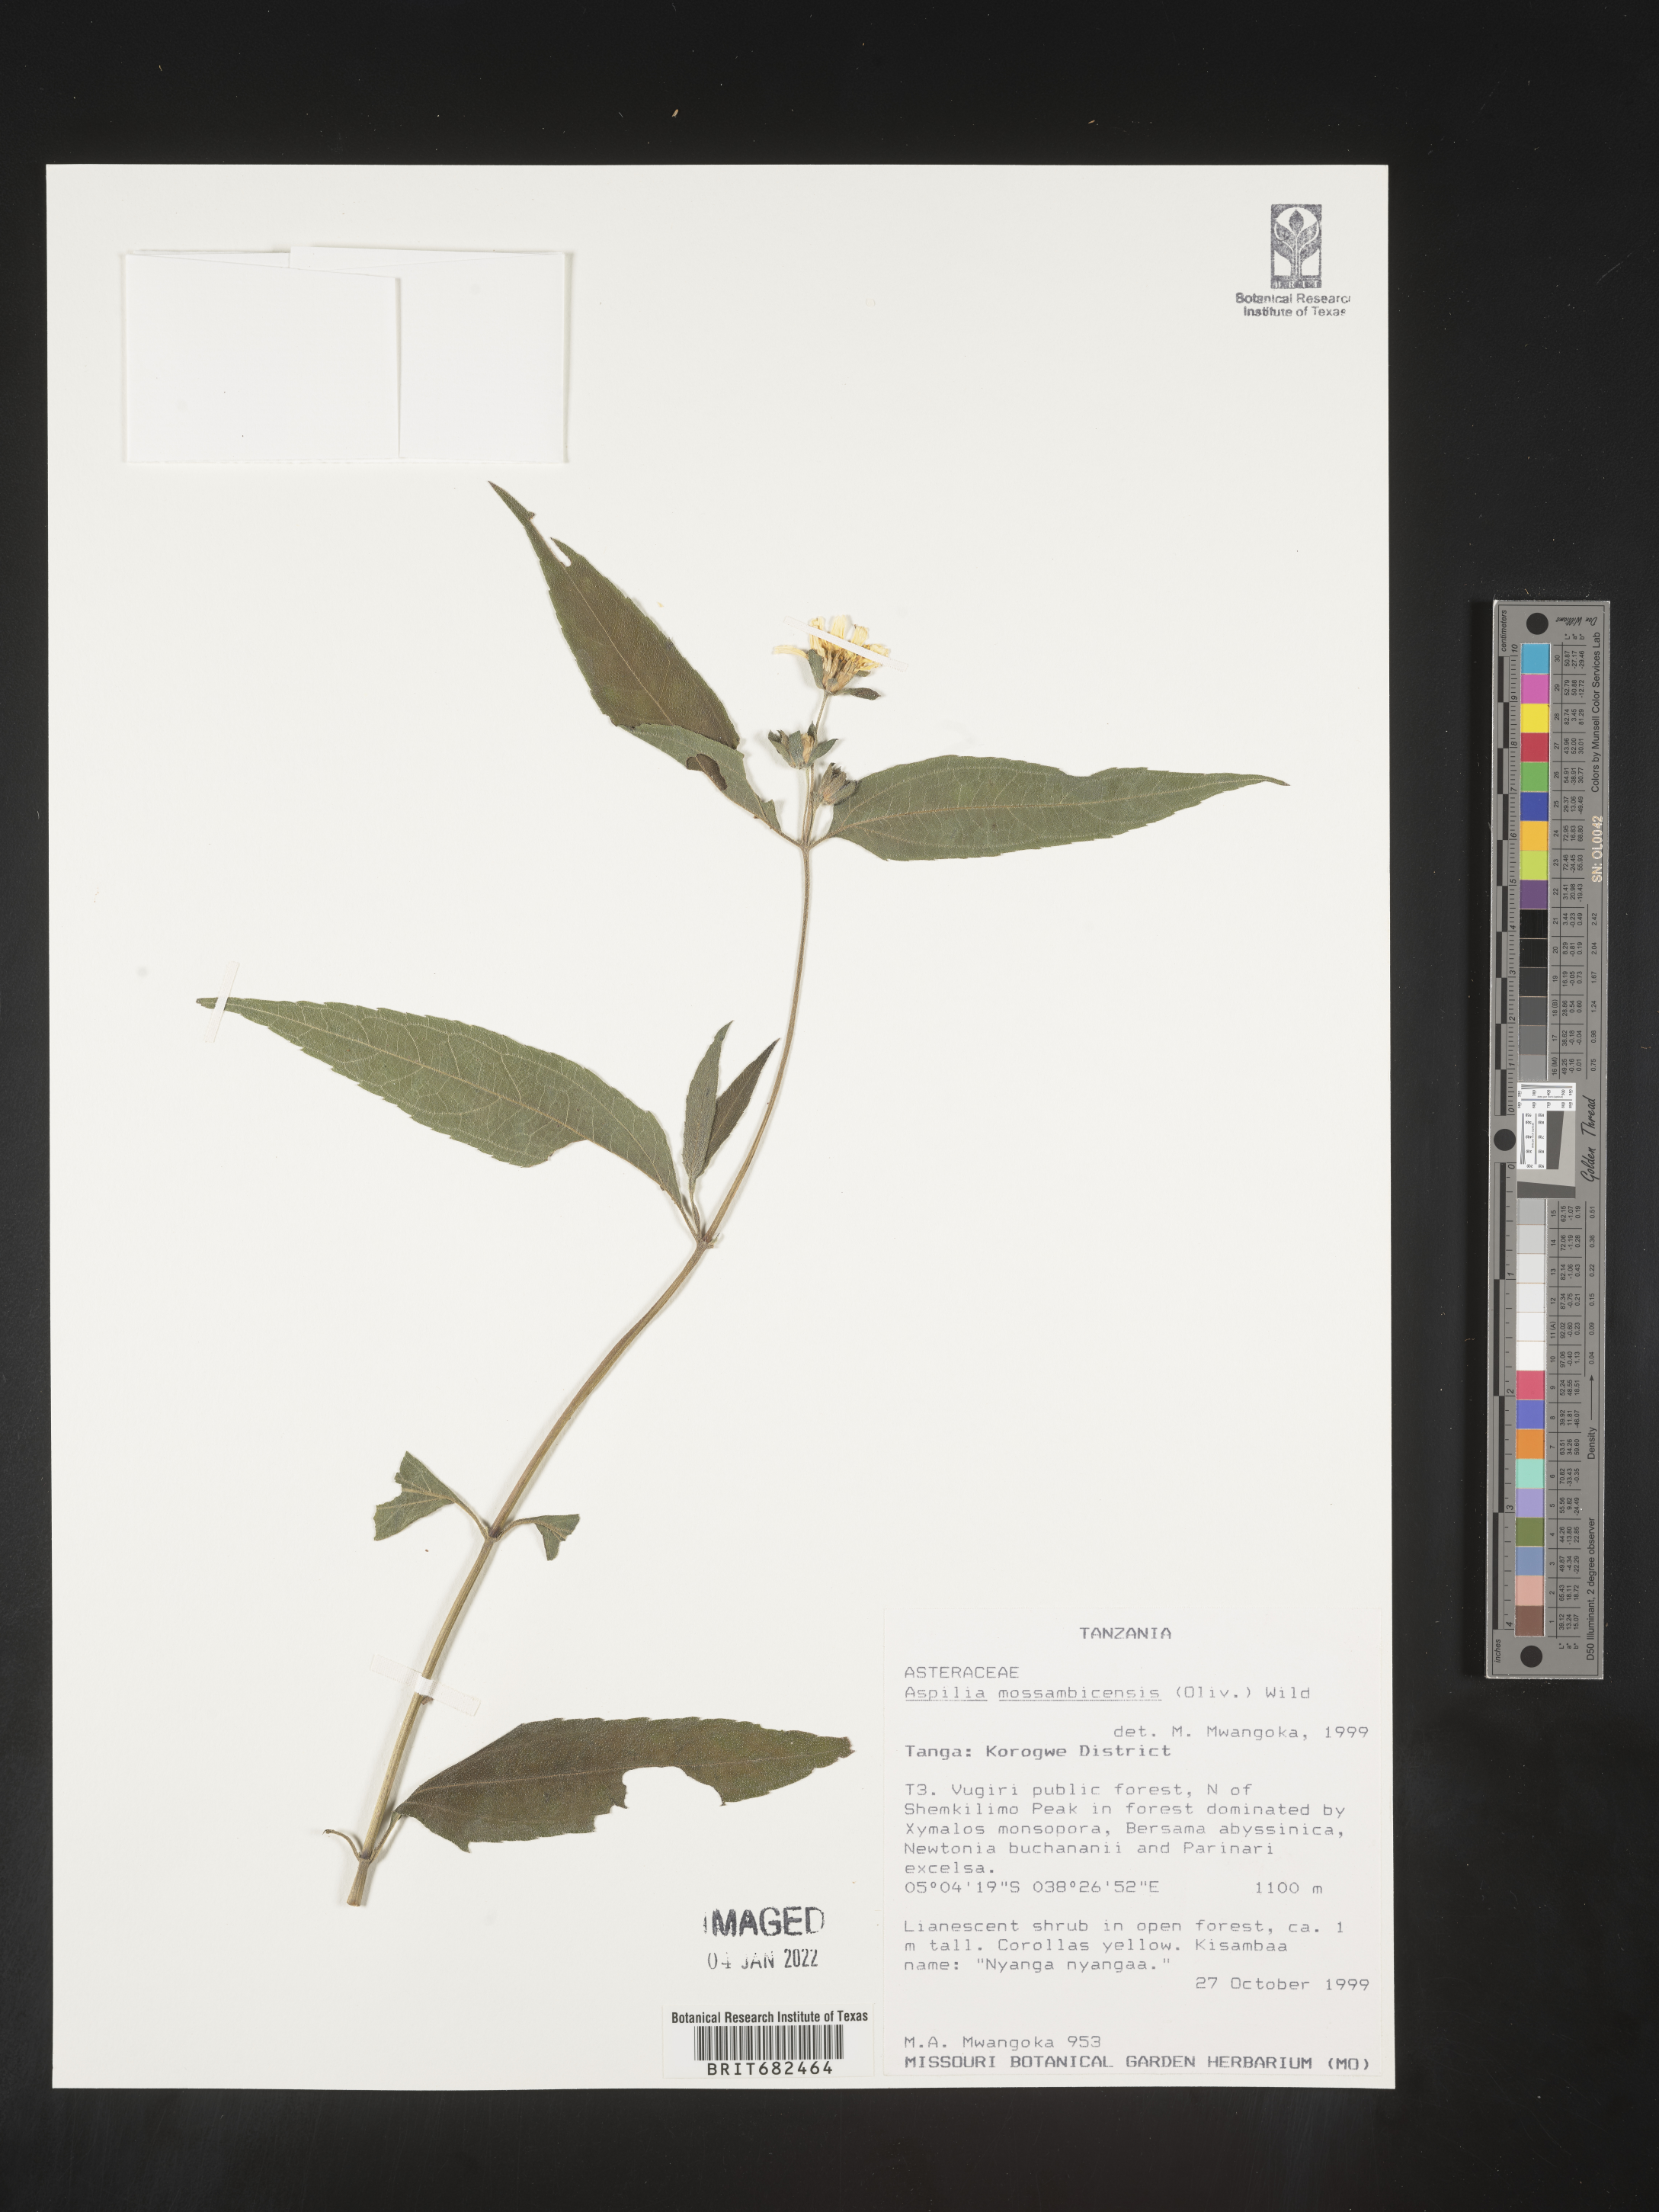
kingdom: Plantae
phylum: Tracheophyta
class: Magnoliopsida
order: Asterales
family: Asteraceae
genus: Aspilia
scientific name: Aspilia
